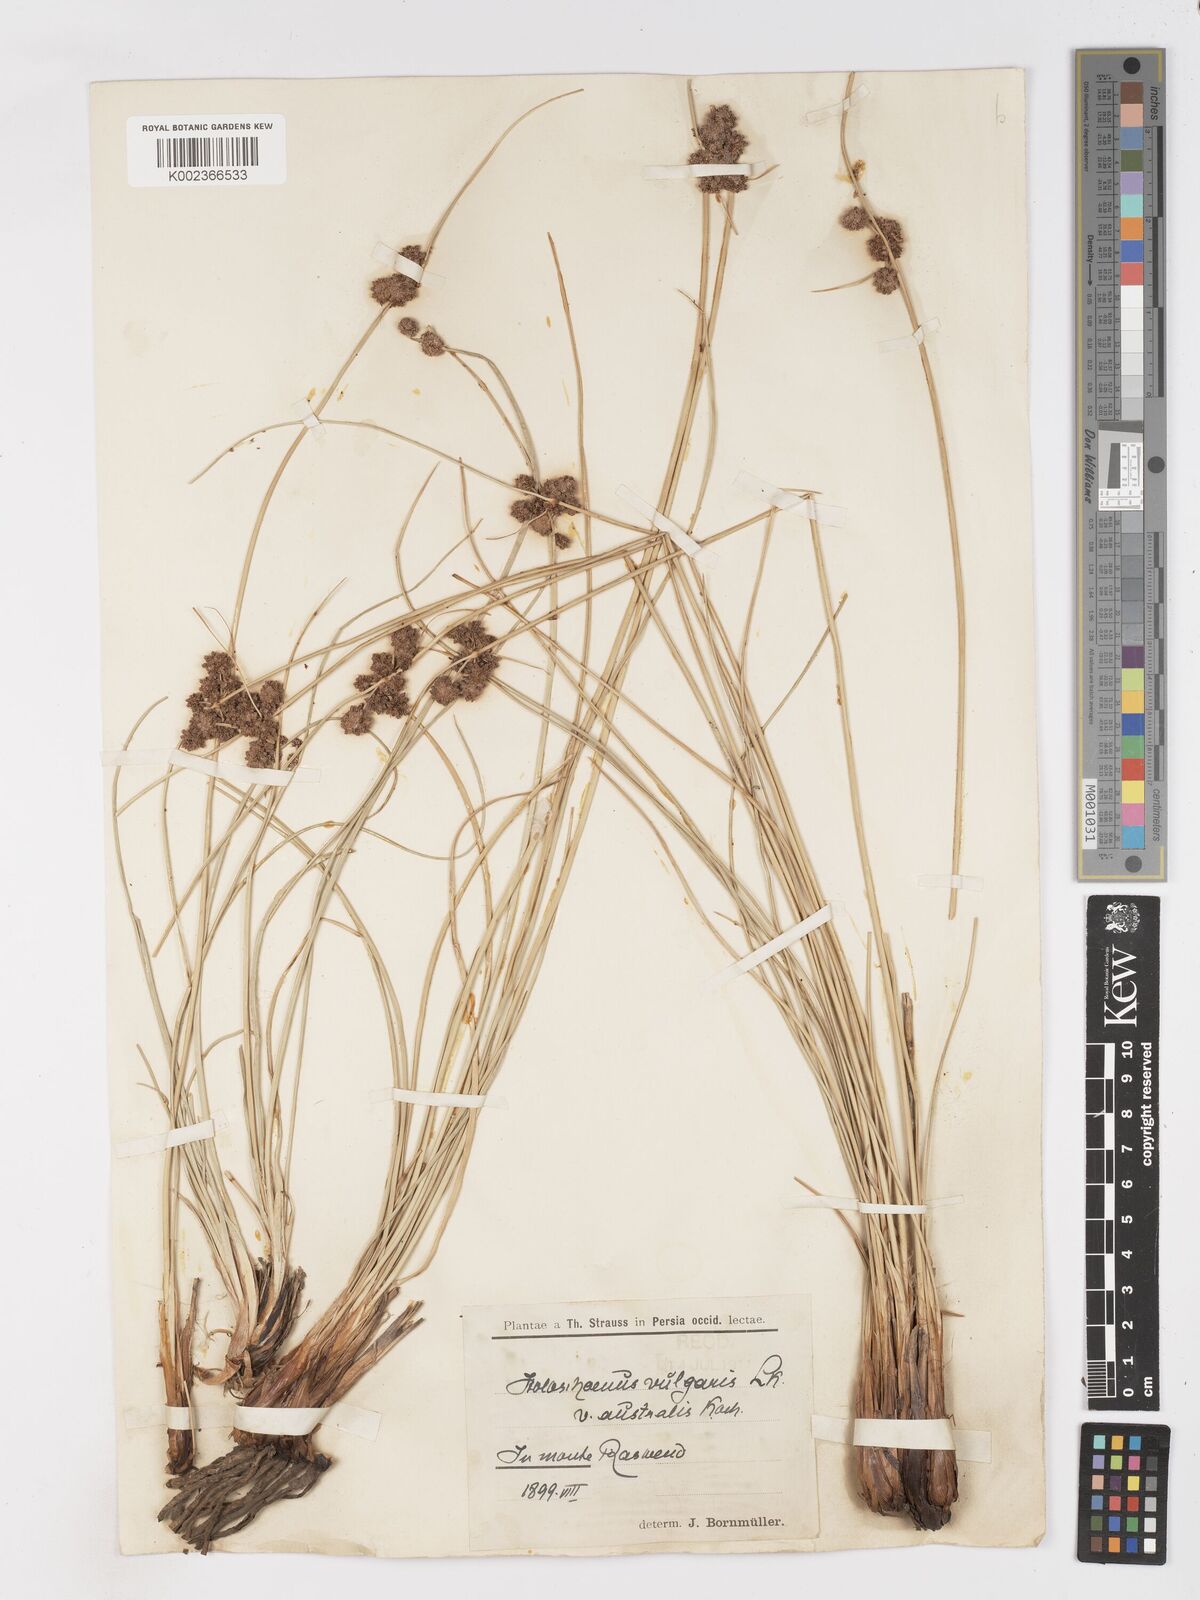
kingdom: Plantae
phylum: Tracheophyta
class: Liliopsida
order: Poales
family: Cyperaceae
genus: Scirpoides
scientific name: Scirpoides holoschoenus
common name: Round-headed club-rush
